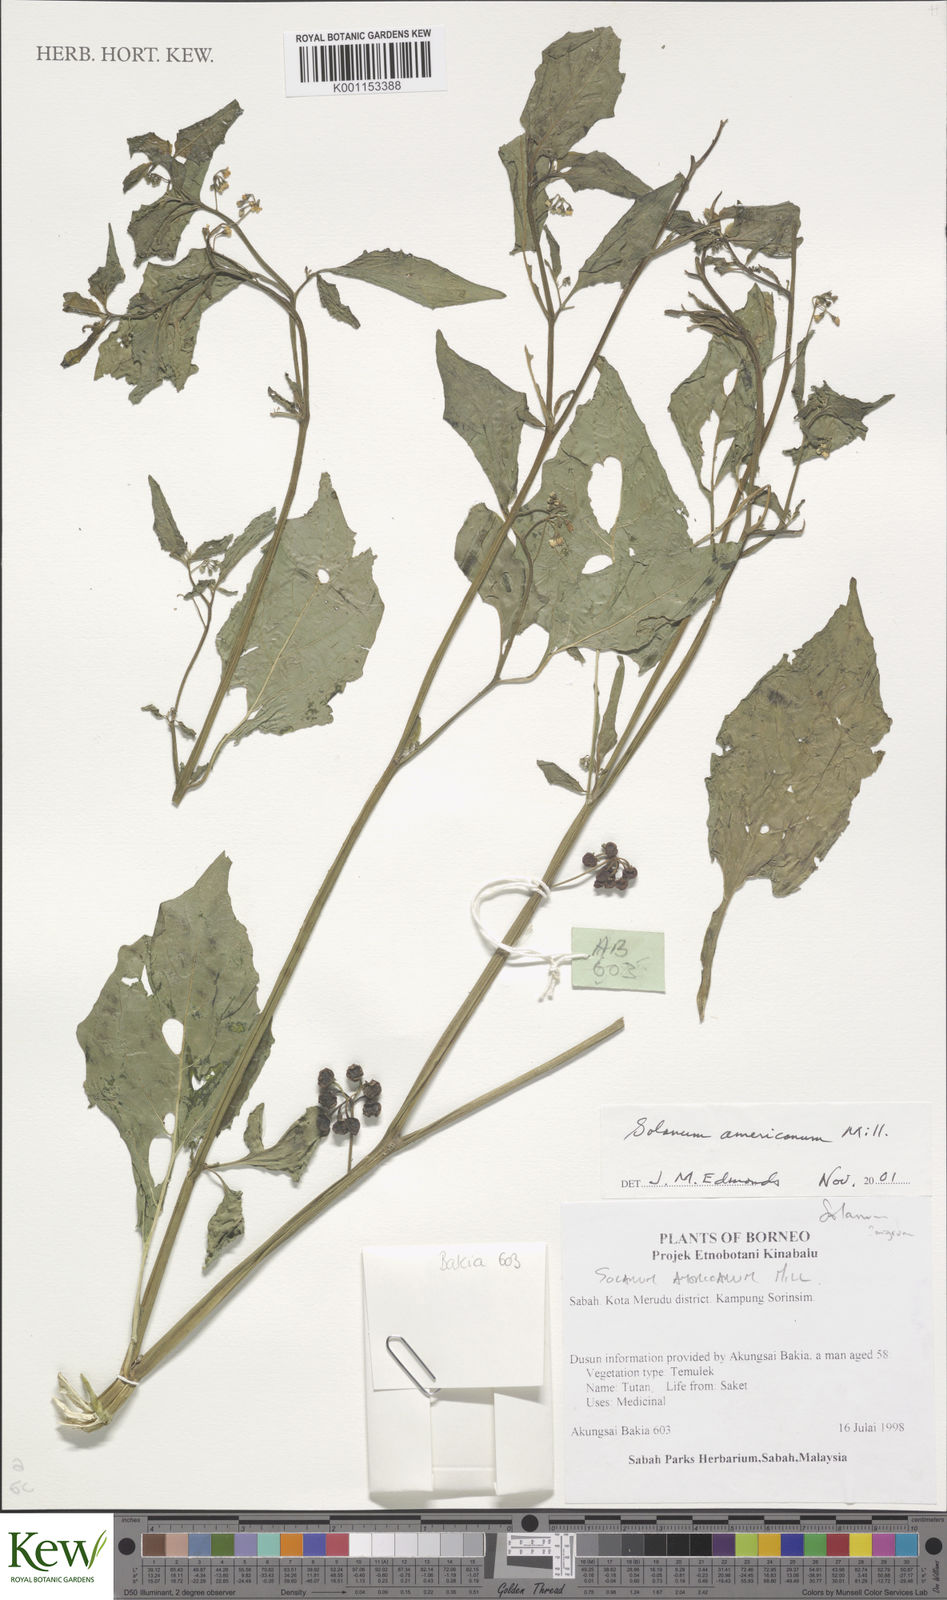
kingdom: Plantae
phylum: Tracheophyta
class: Magnoliopsida
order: Solanales
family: Solanaceae
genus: Solanum
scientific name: Solanum americanum
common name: American black nightshade
